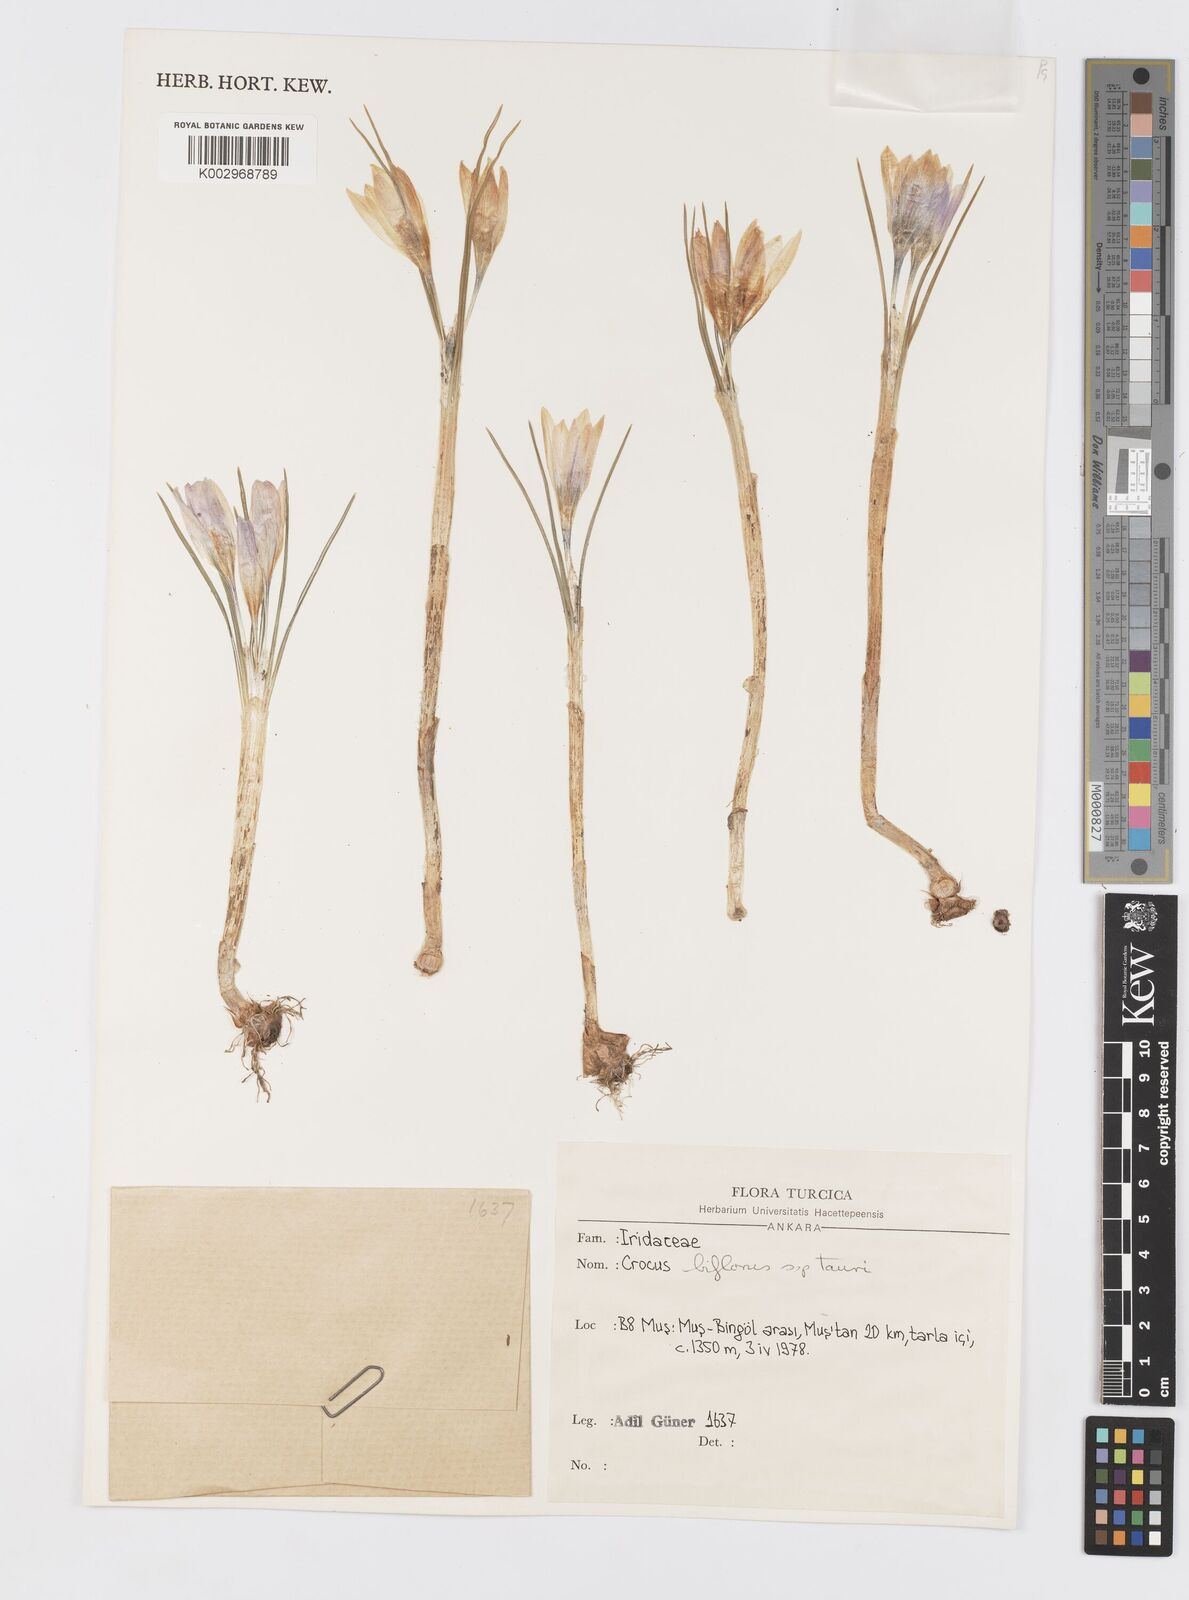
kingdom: Plantae
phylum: Tracheophyta
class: Liliopsida
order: Asparagales
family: Iridaceae
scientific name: Iridaceae
